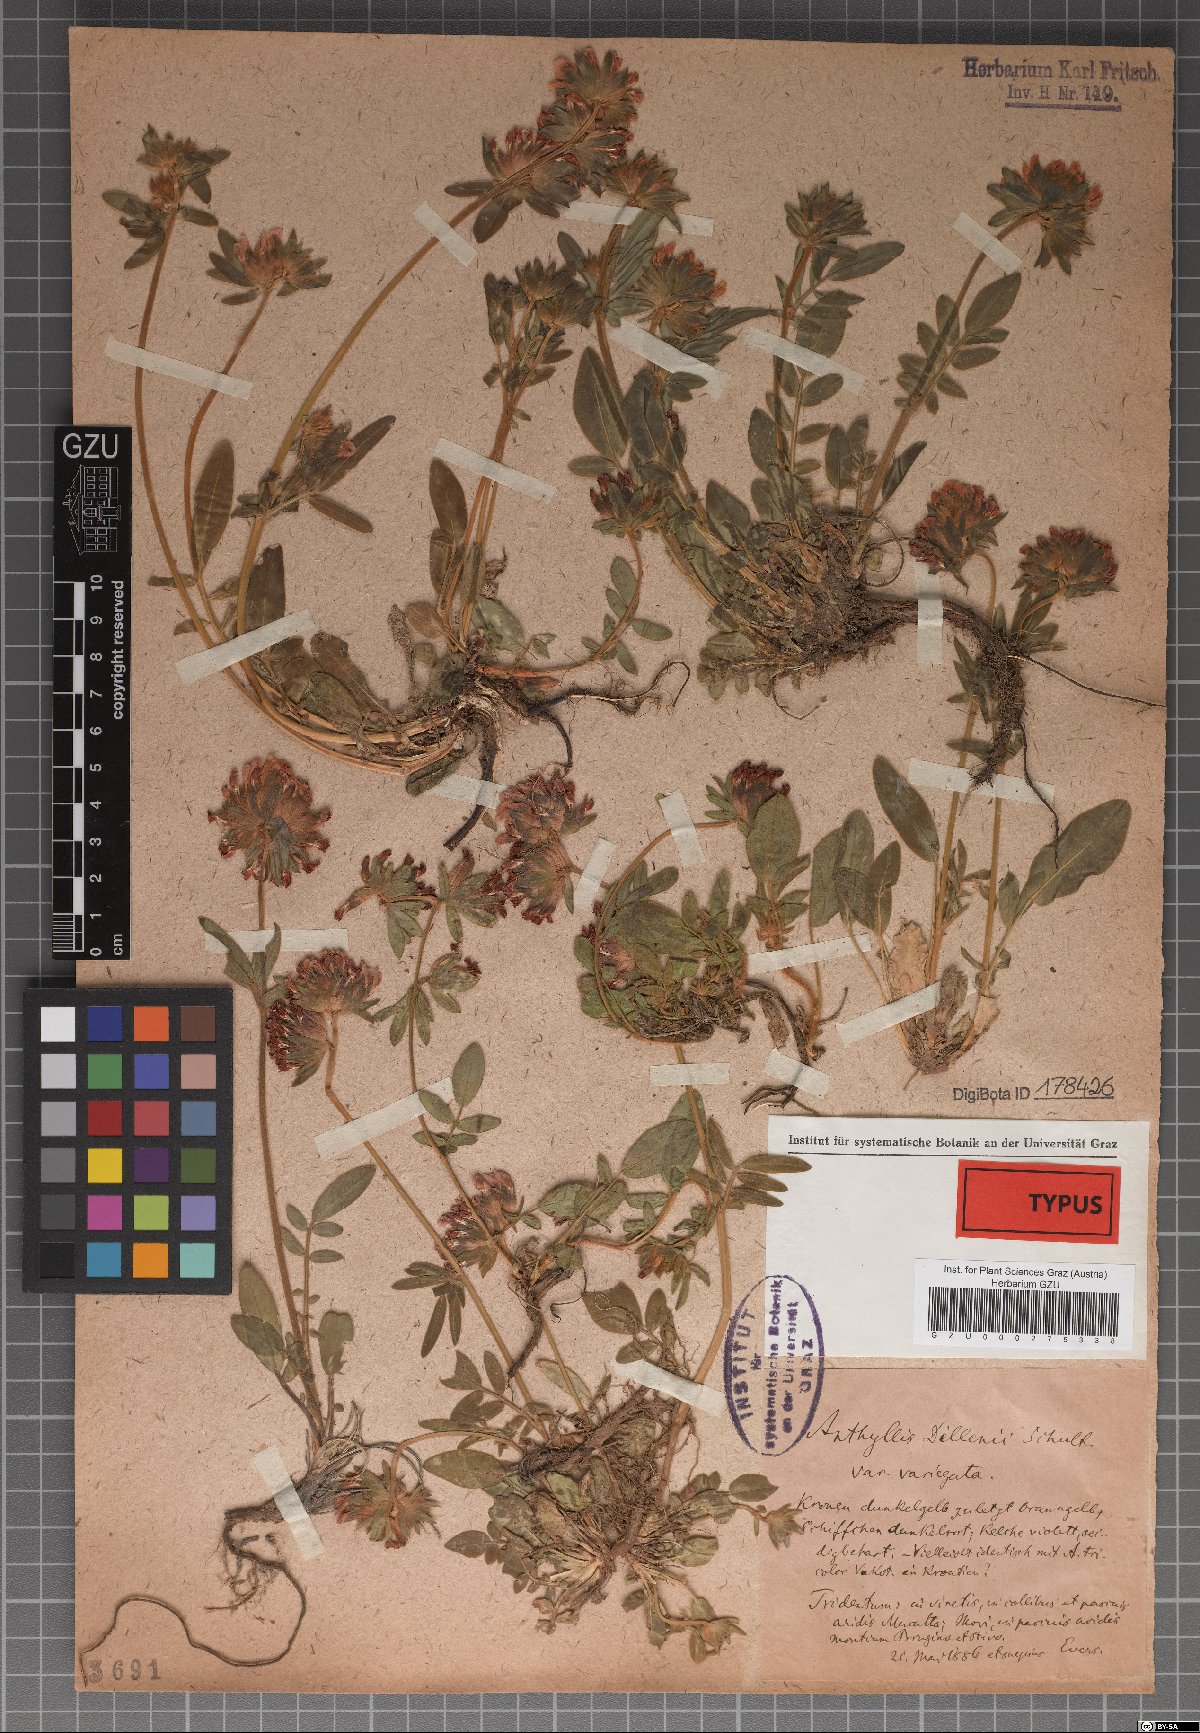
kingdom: Plantae
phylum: Tracheophyta
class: Magnoliopsida
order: Fabales
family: Fabaceae
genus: Anthyllis
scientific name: Anthyllis vulneraria
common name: Kidney vetch
